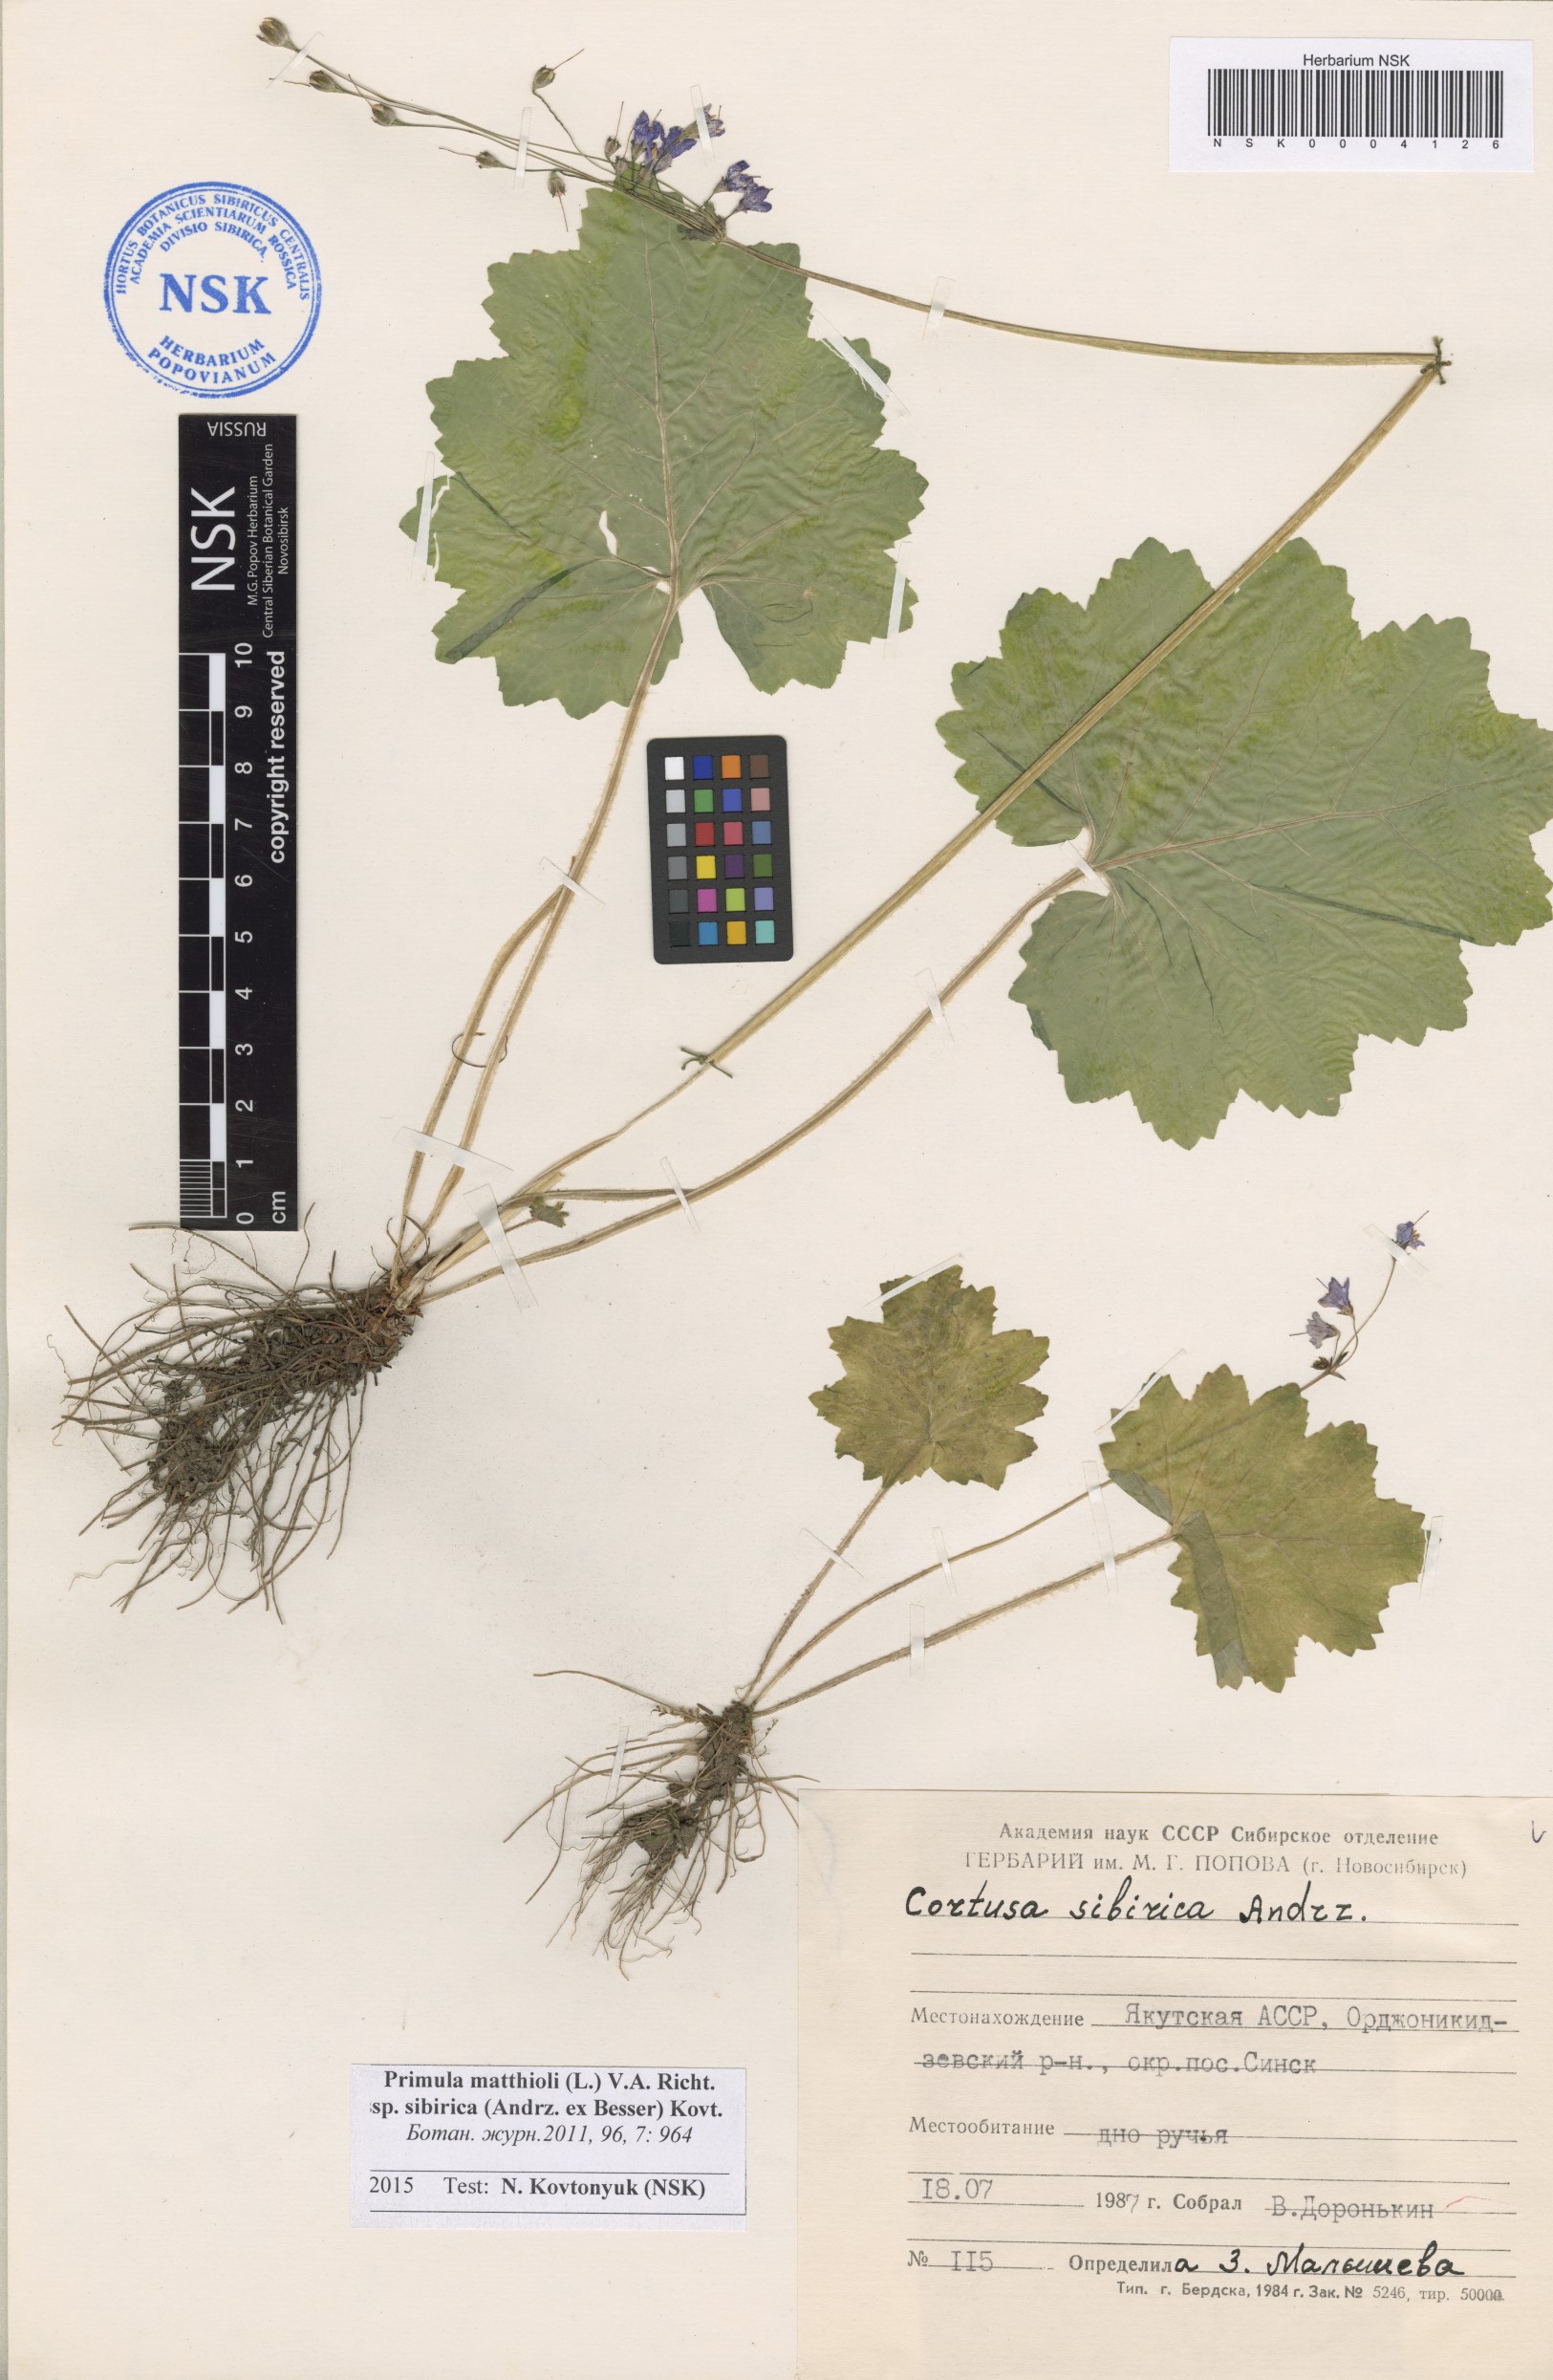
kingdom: Plantae
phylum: Tracheophyta
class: Magnoliopsida
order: Ericales
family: Primulaceae
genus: Primula
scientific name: Primula matthioli
